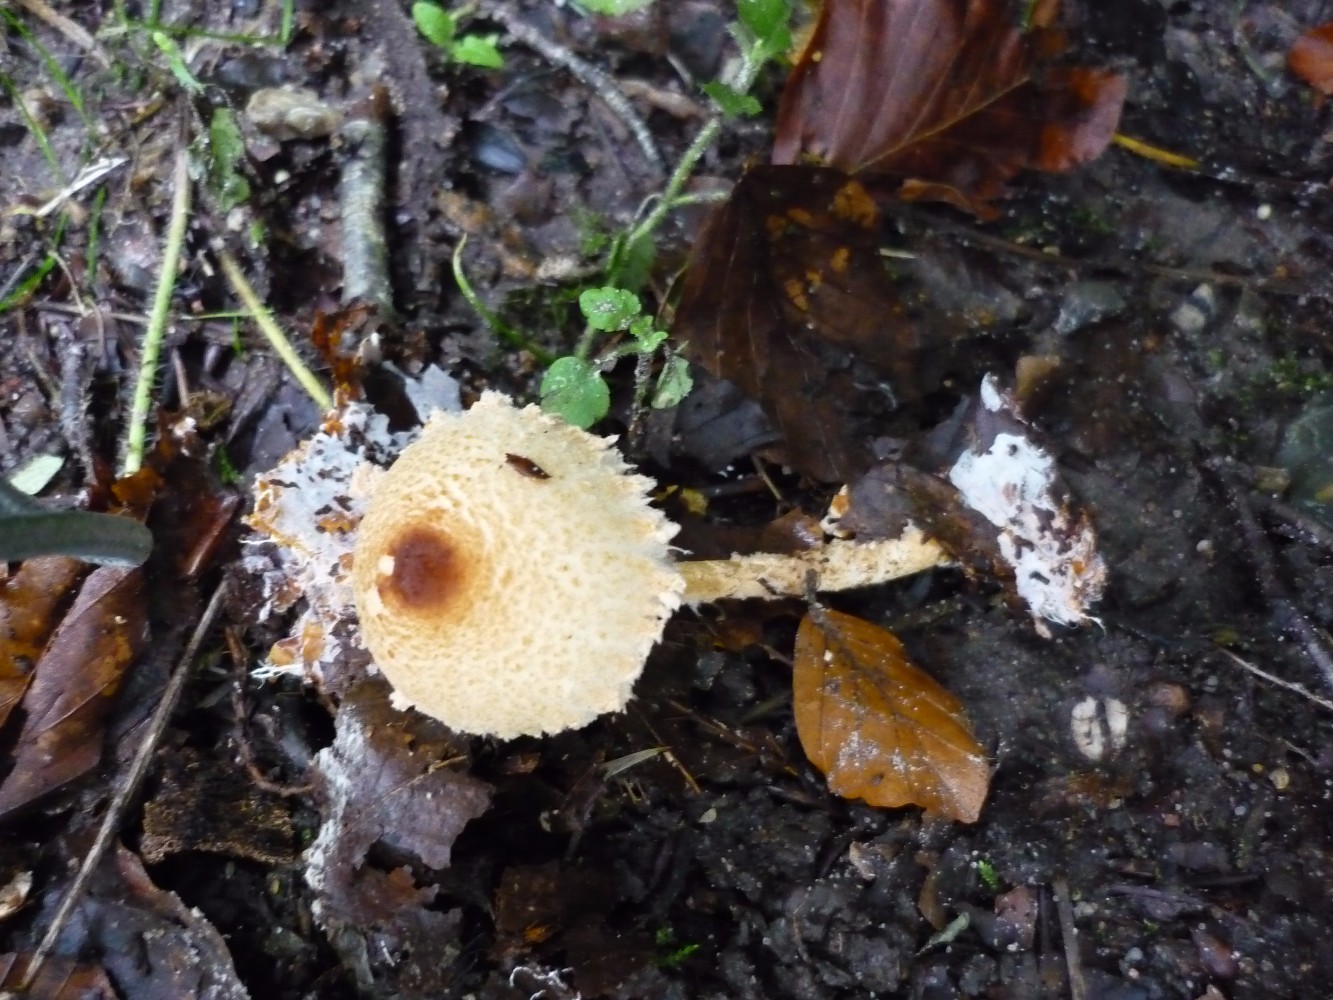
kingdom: Fungi
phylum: Basidiomycota
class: Agaricomycetes
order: Agaricales
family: Agaricaceae
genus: Lepiota
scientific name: Lepiota magnispora
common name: gulfnugget parasolhat
